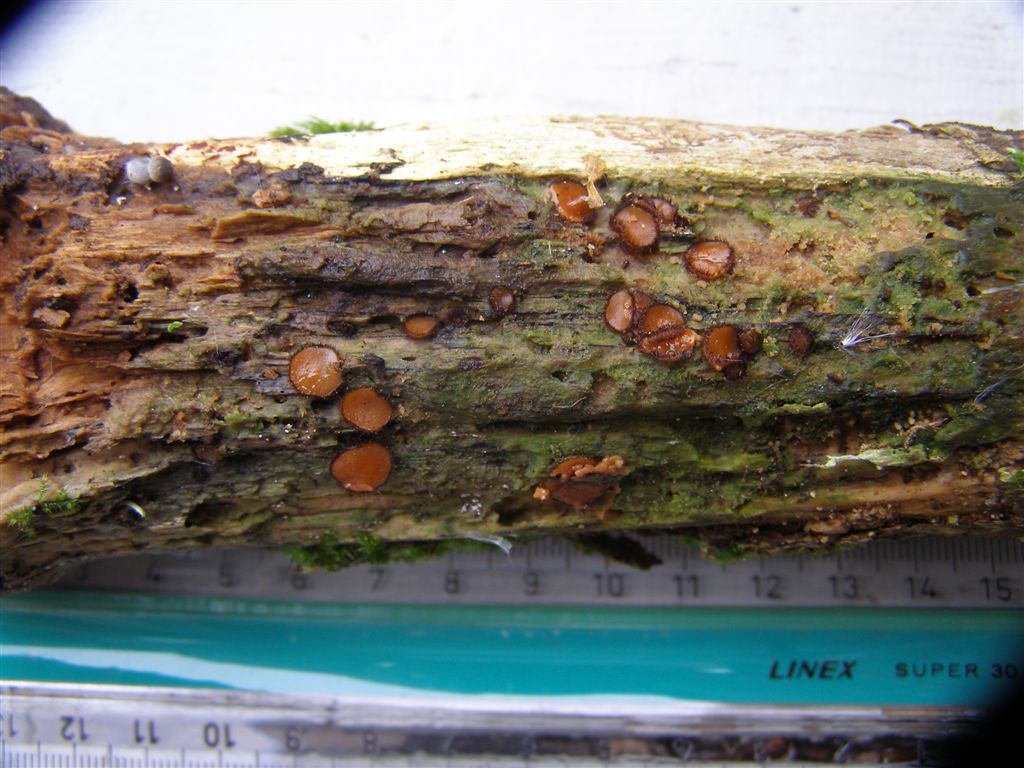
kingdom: Fungi
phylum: Ascomycota
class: Pezizomycetes
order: Pezizales
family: Pyronemataceae
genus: Scutellinia
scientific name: Scutellinia
